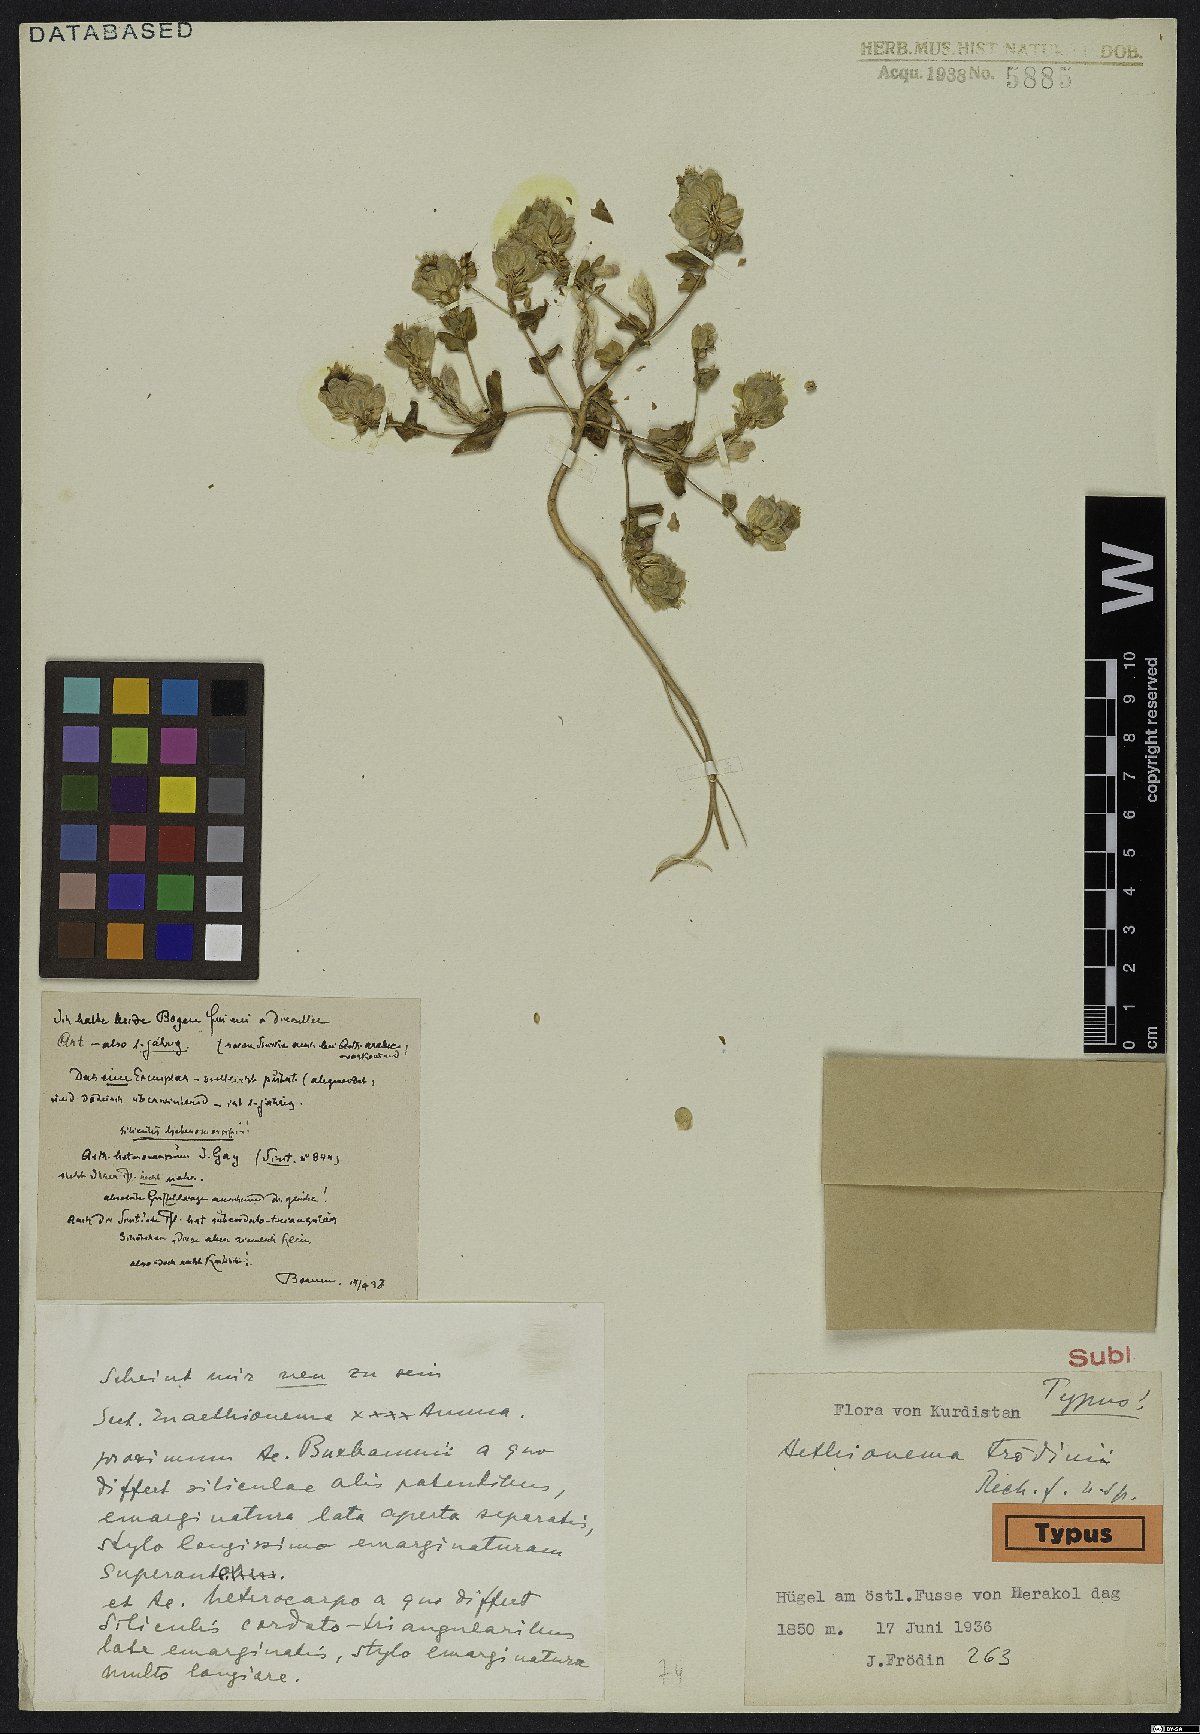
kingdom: Plantae
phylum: Tracheophyta
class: Magnoliopsida
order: Brassicales
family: Brassicaceae
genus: Aethionema
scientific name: Aethionema froedinii
